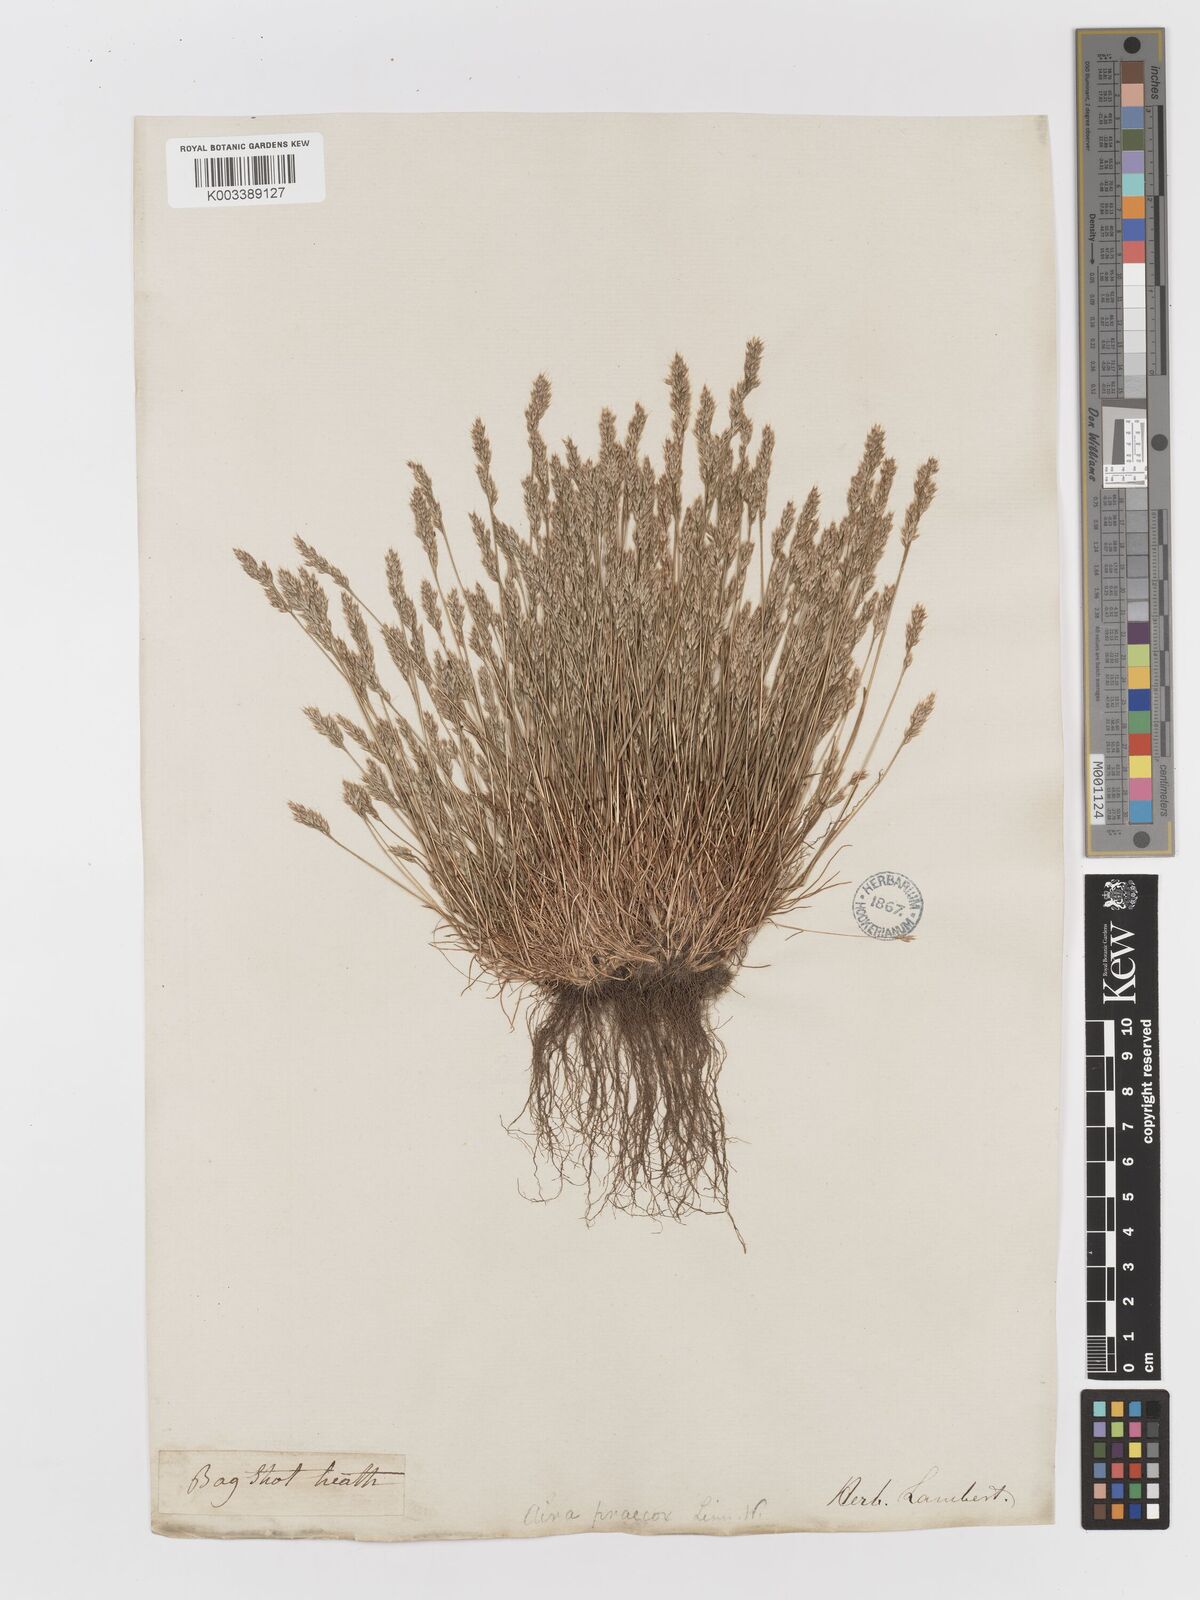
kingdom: Plantae
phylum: Tracheophyta
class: Liliopsida
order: Poales
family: Poaceae
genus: Aira
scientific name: Aira praecox
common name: Early hair-grass
